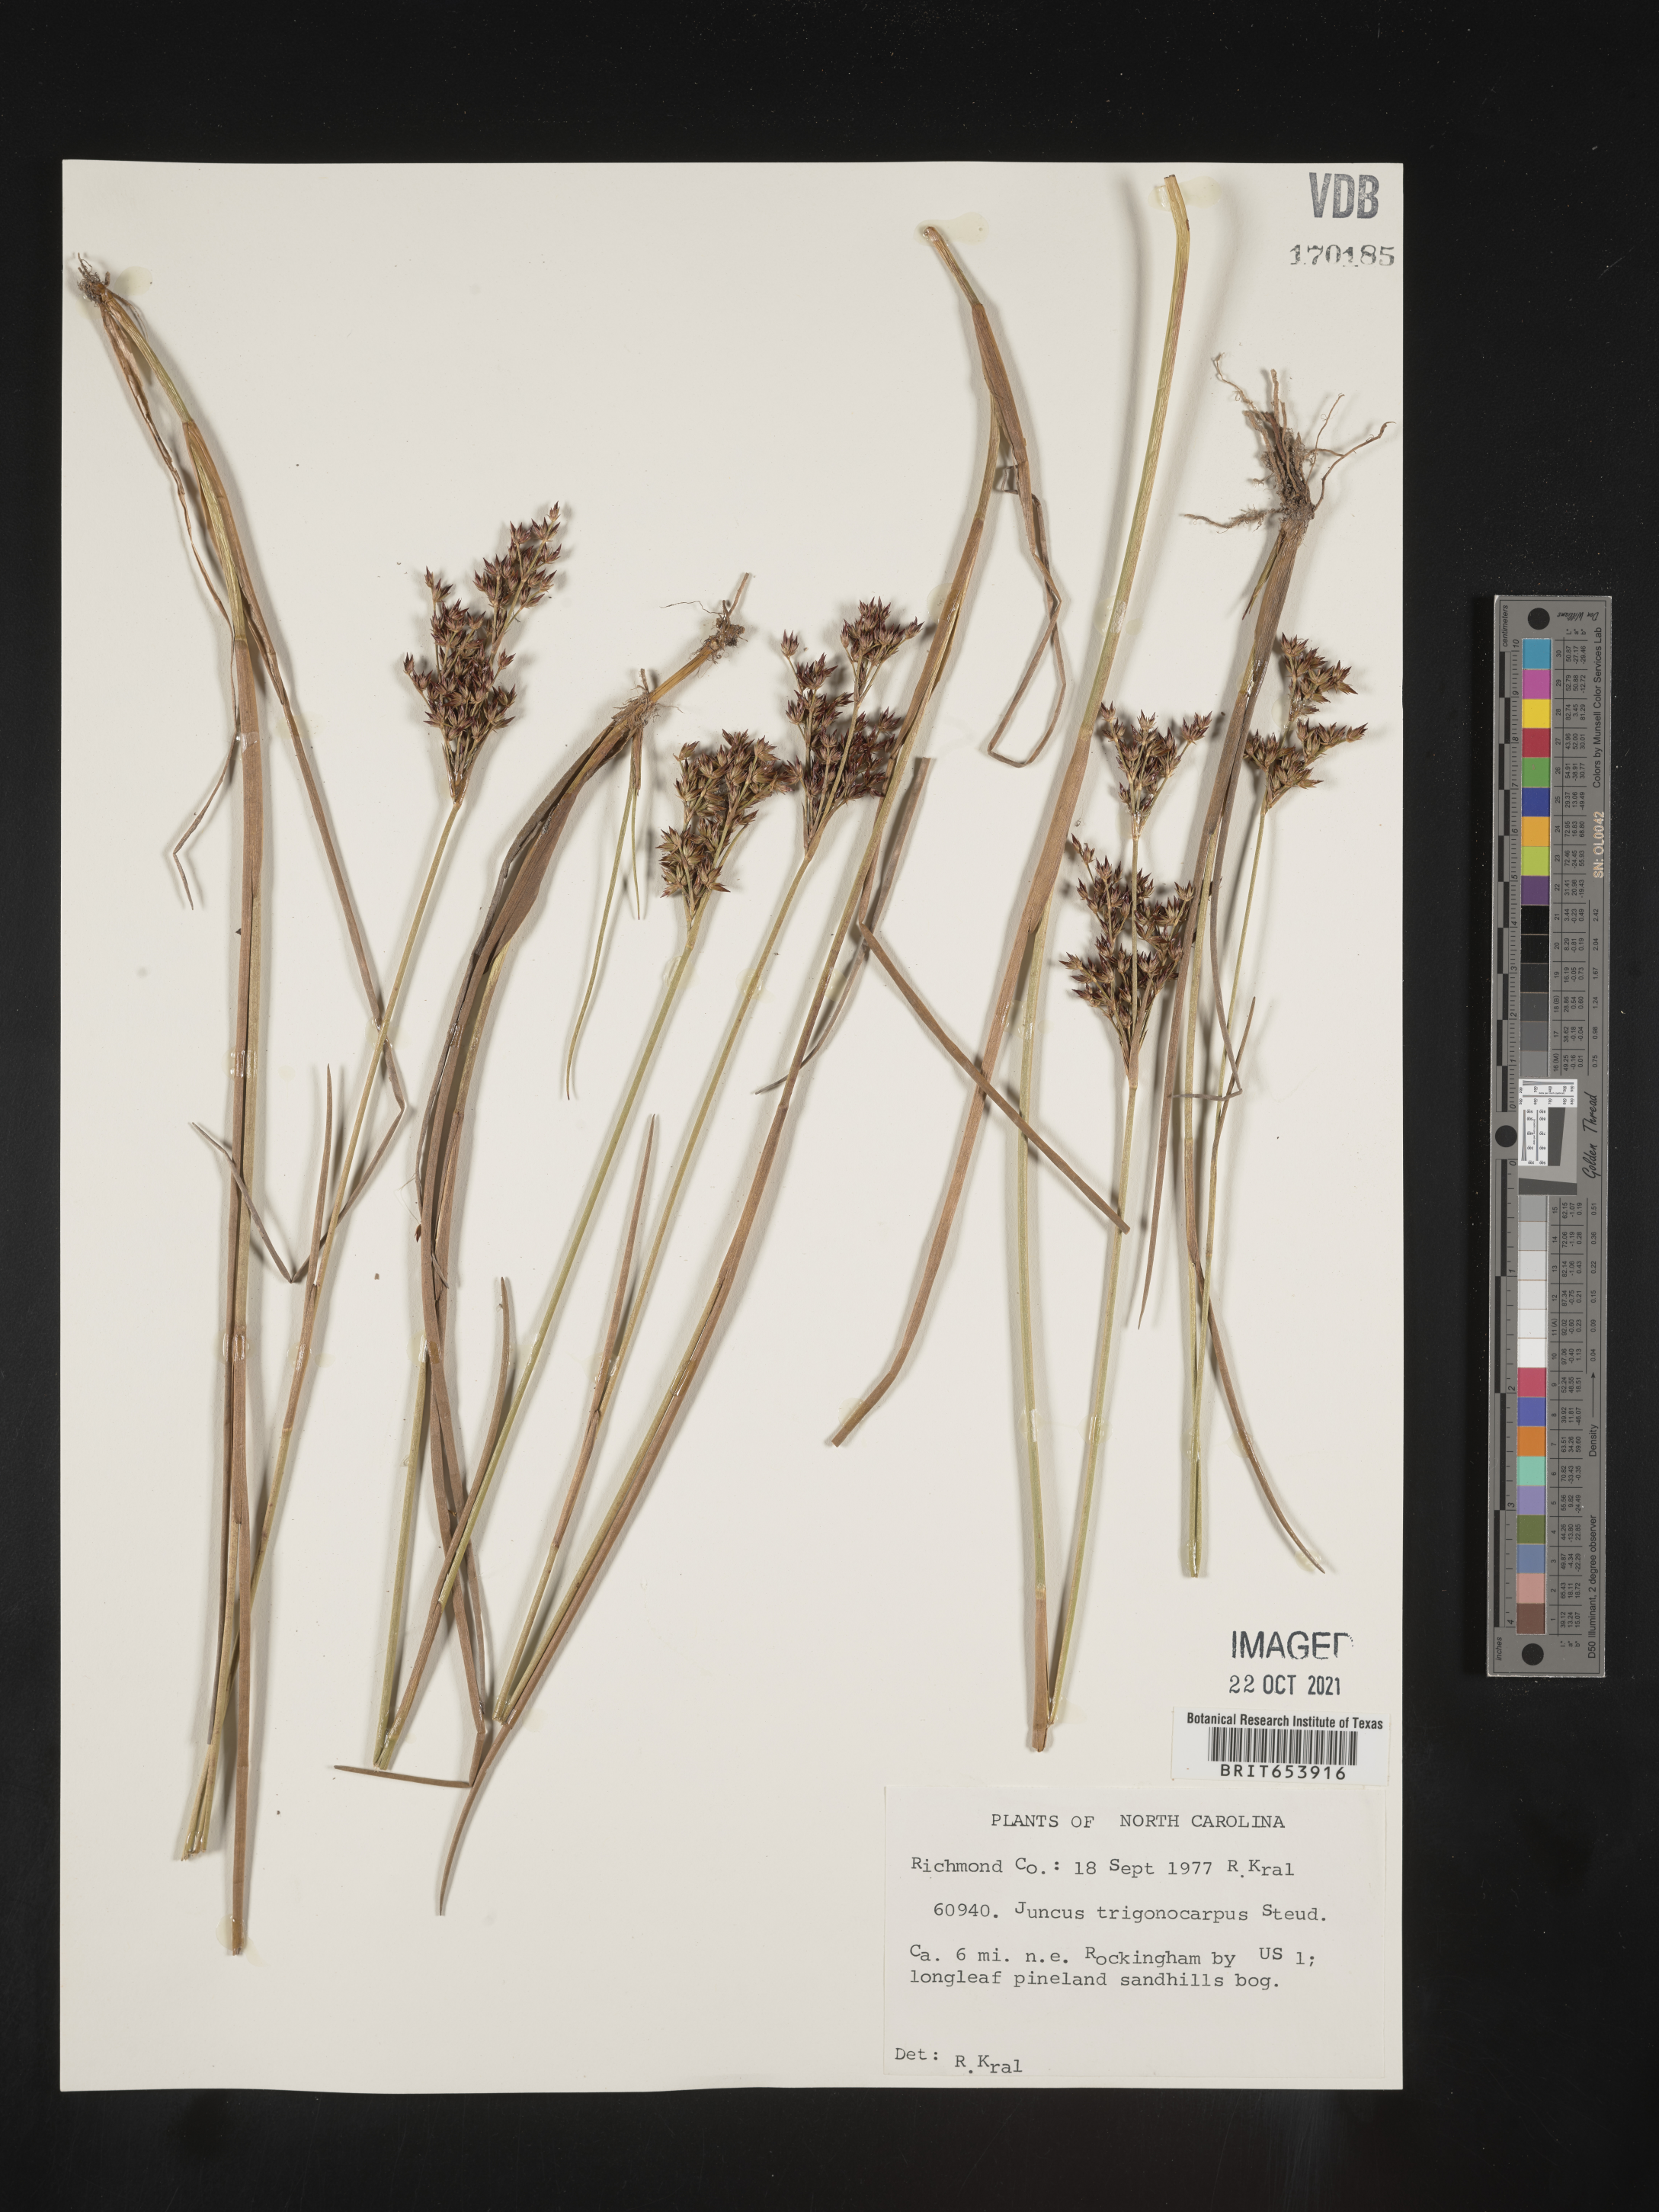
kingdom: Plantae
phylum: Tracheophyta
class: Liliopsida
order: Poales
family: Juncaceae
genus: Juncus
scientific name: Juncus trigonocarpus
